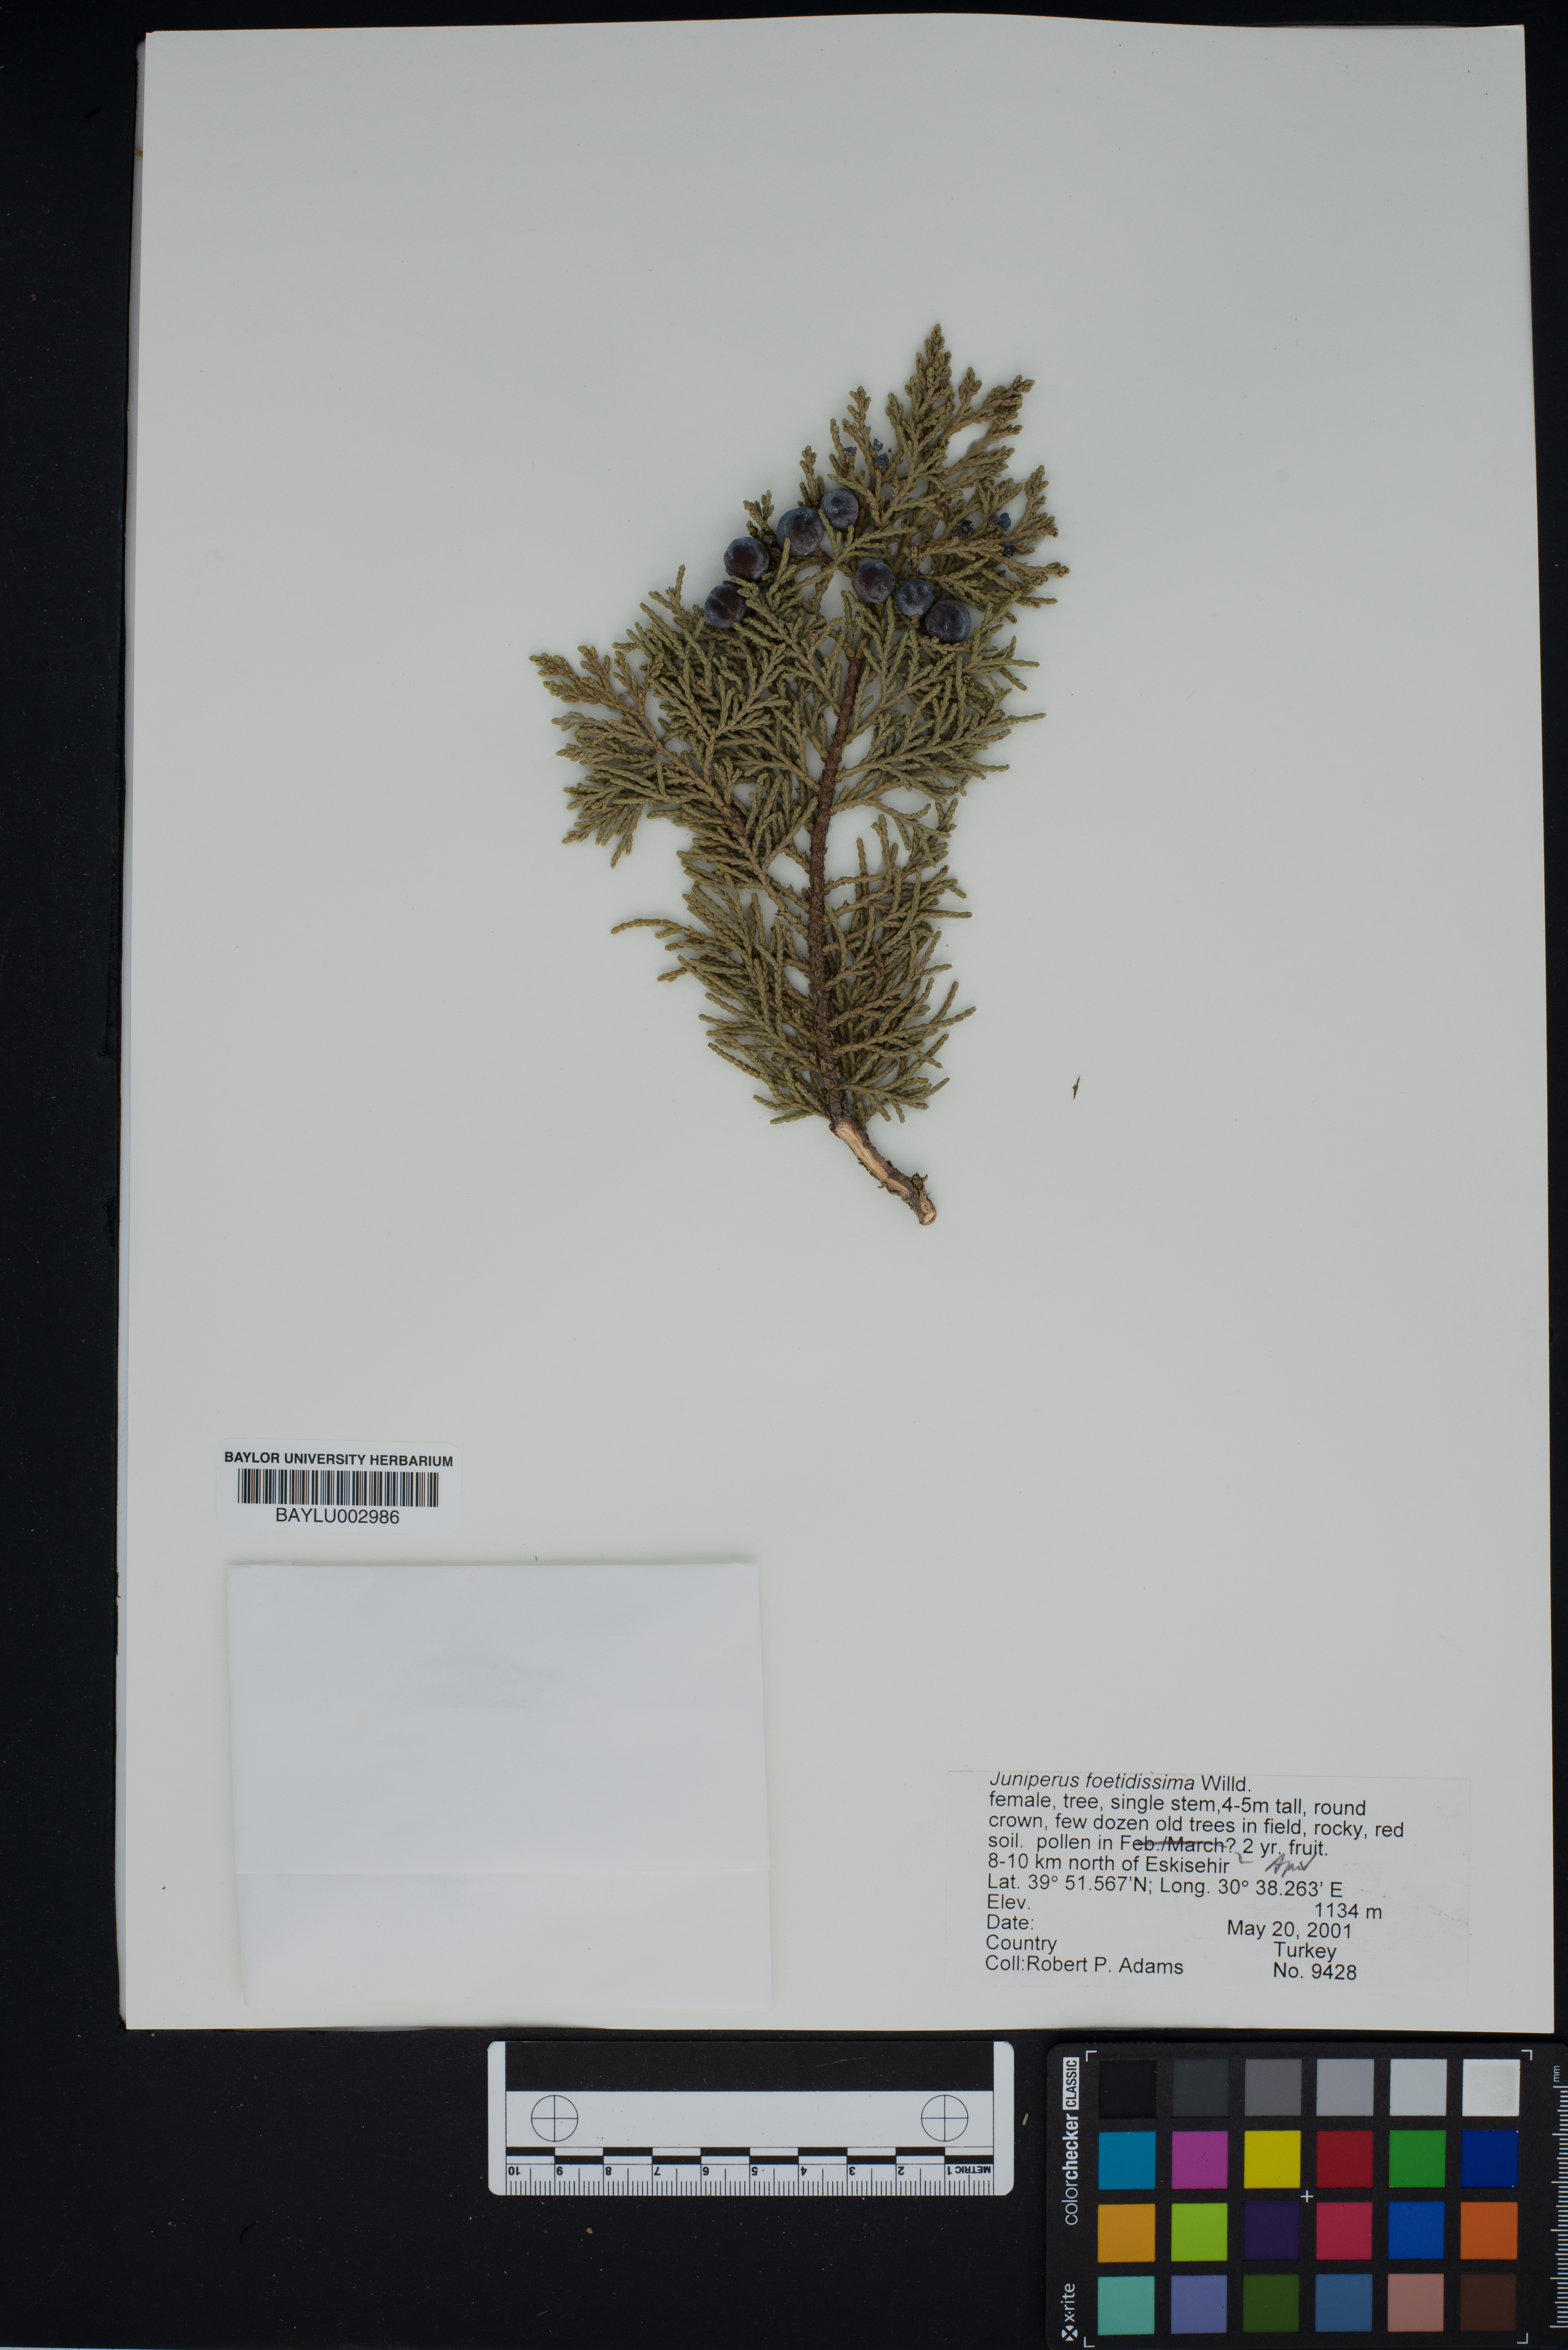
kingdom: Plantae
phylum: Tracheophyta
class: Pinopsida
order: Pinales
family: Cupressaceae
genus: Juniperus
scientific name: Juniperus foetidissima
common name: Stinking juniper
